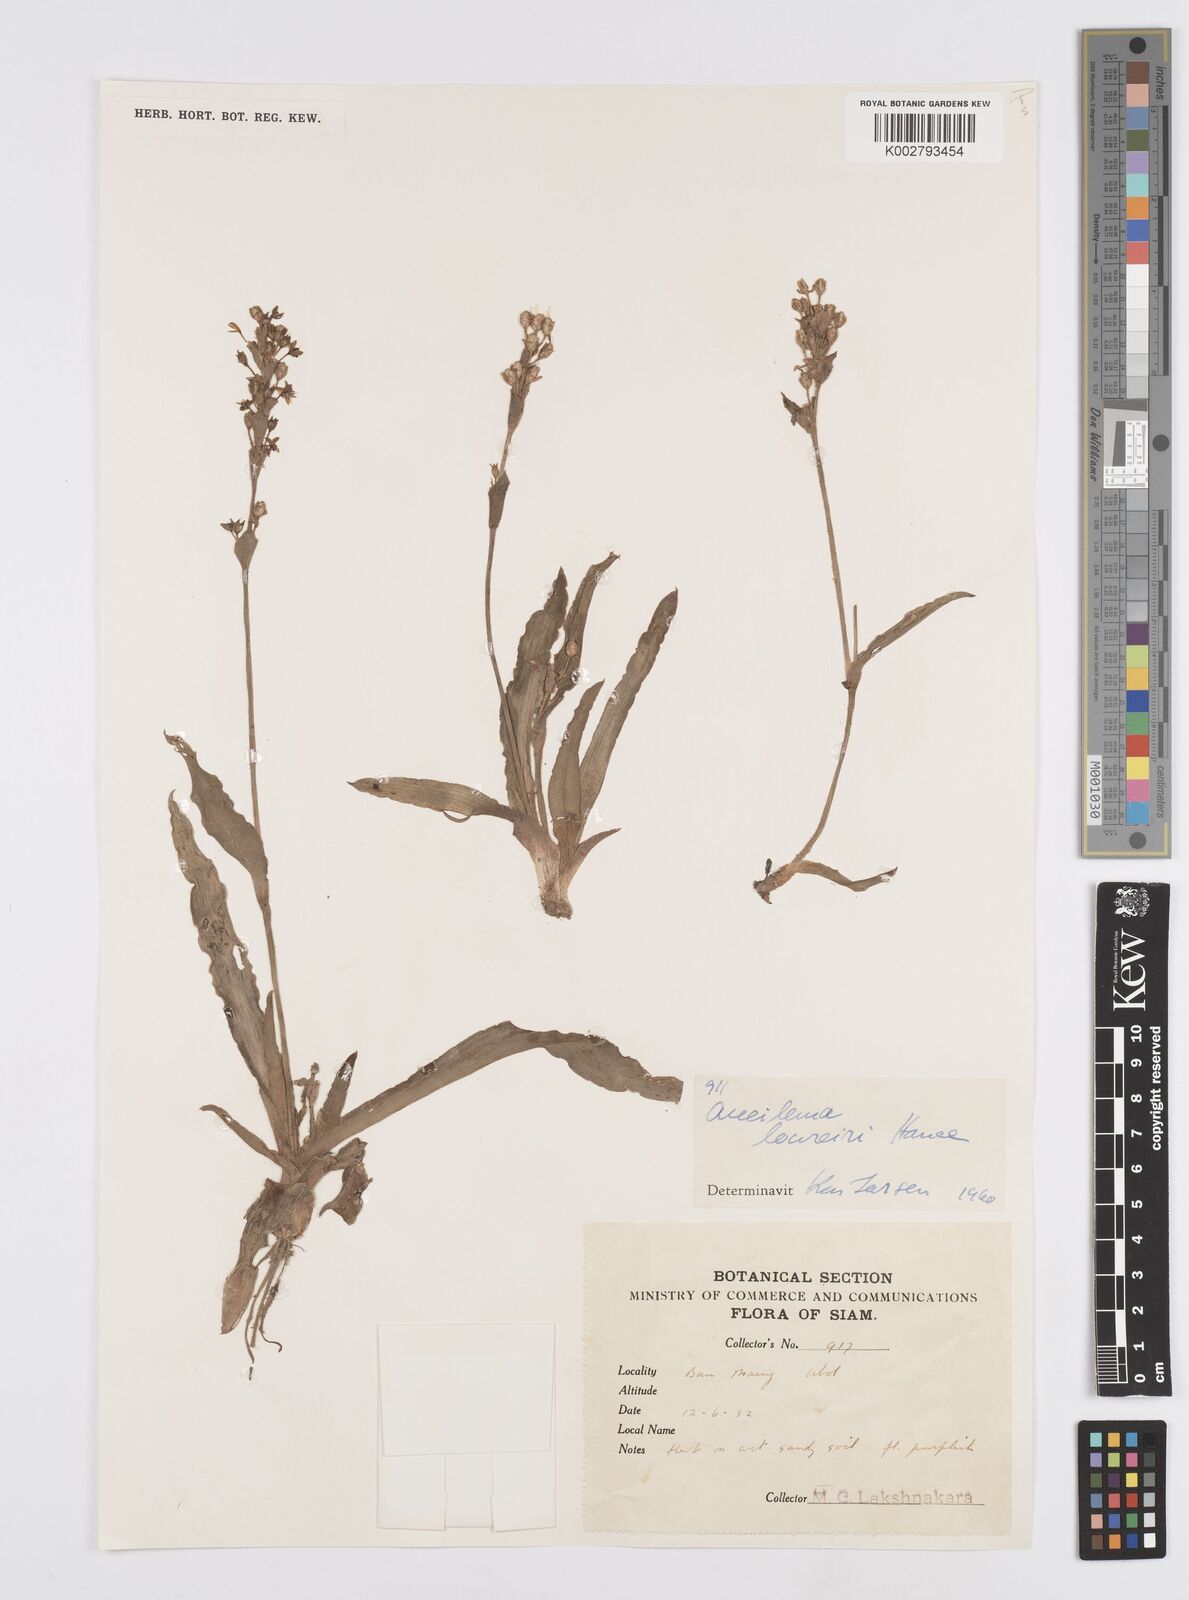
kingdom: Plantae
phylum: Tracheophyta
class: Liliopsida
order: Commelinales
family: Commelinaceae
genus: Murdannia
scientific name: Murdannia edulis
